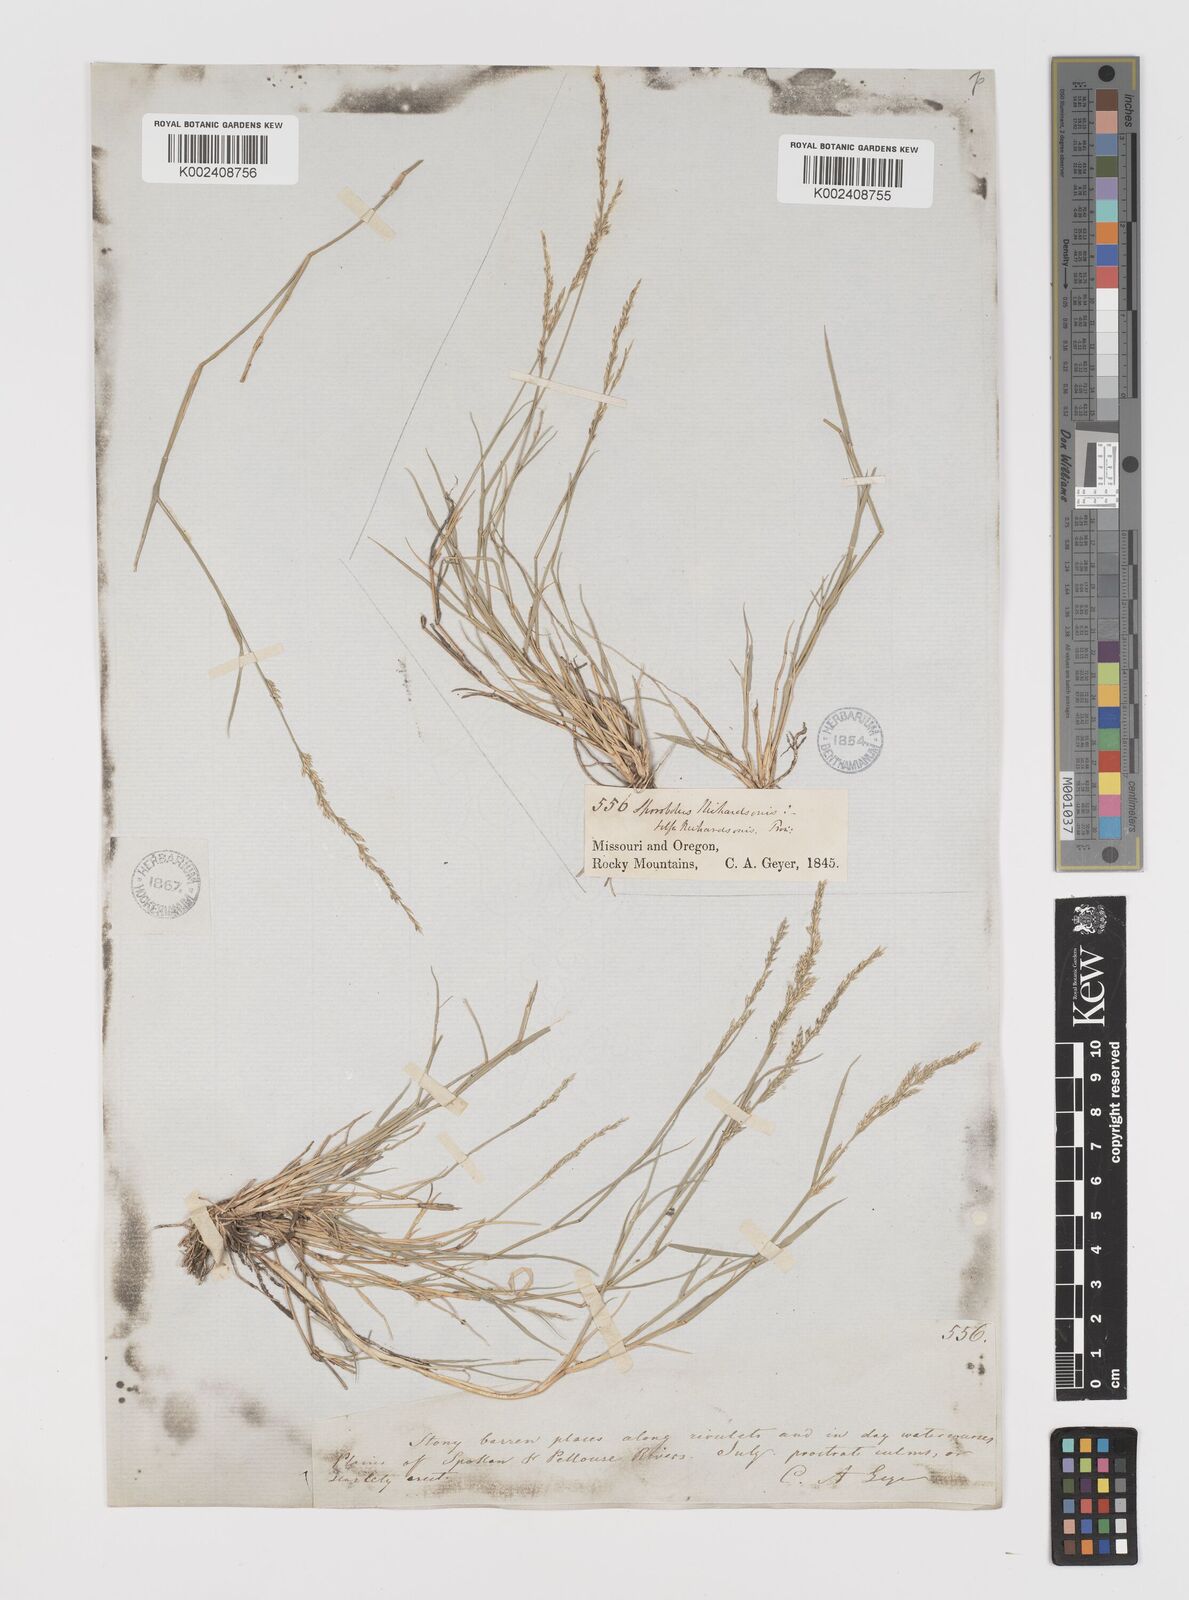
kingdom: Plantae
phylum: Tracheophyta
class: Liliopsida
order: Poales
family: Poaceae
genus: Muhlenbergia
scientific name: Muhlenbergia richardsonis
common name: Mat muhly
